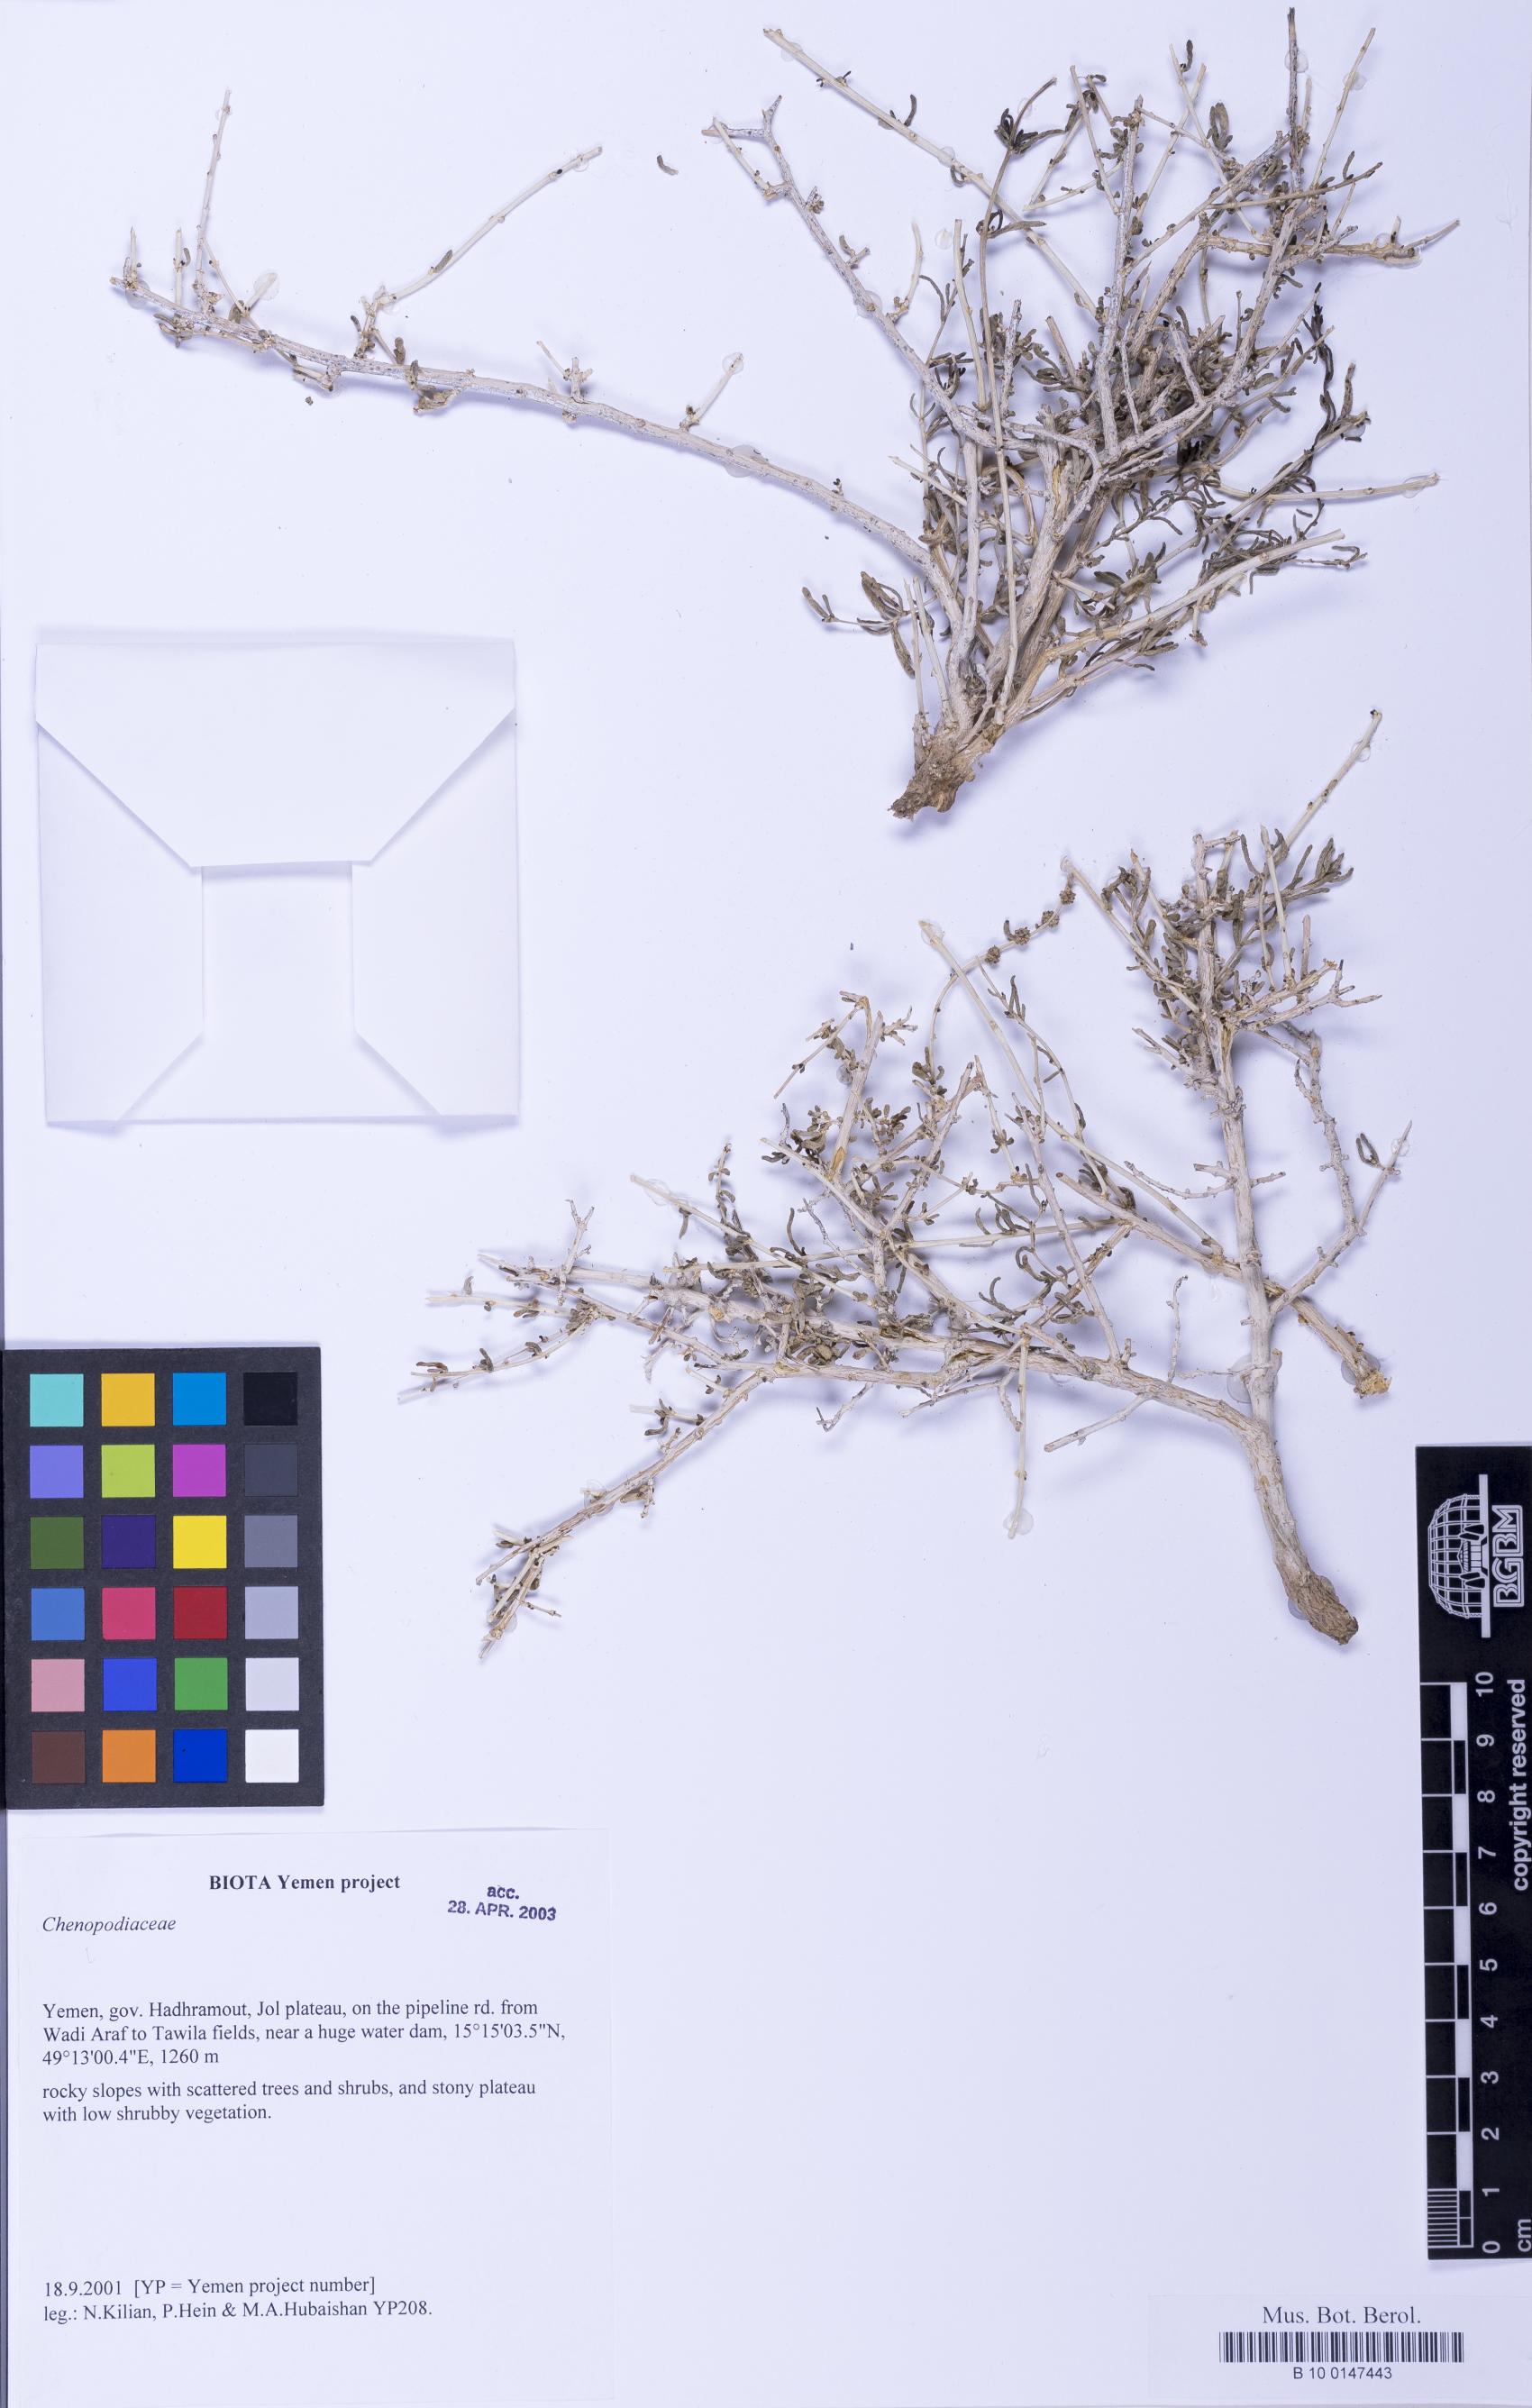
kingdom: Plantae
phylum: Tracheophyta
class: Magnoliopsida
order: Caryophyllales
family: Amaranthaceae
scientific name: Amaranthaceae
